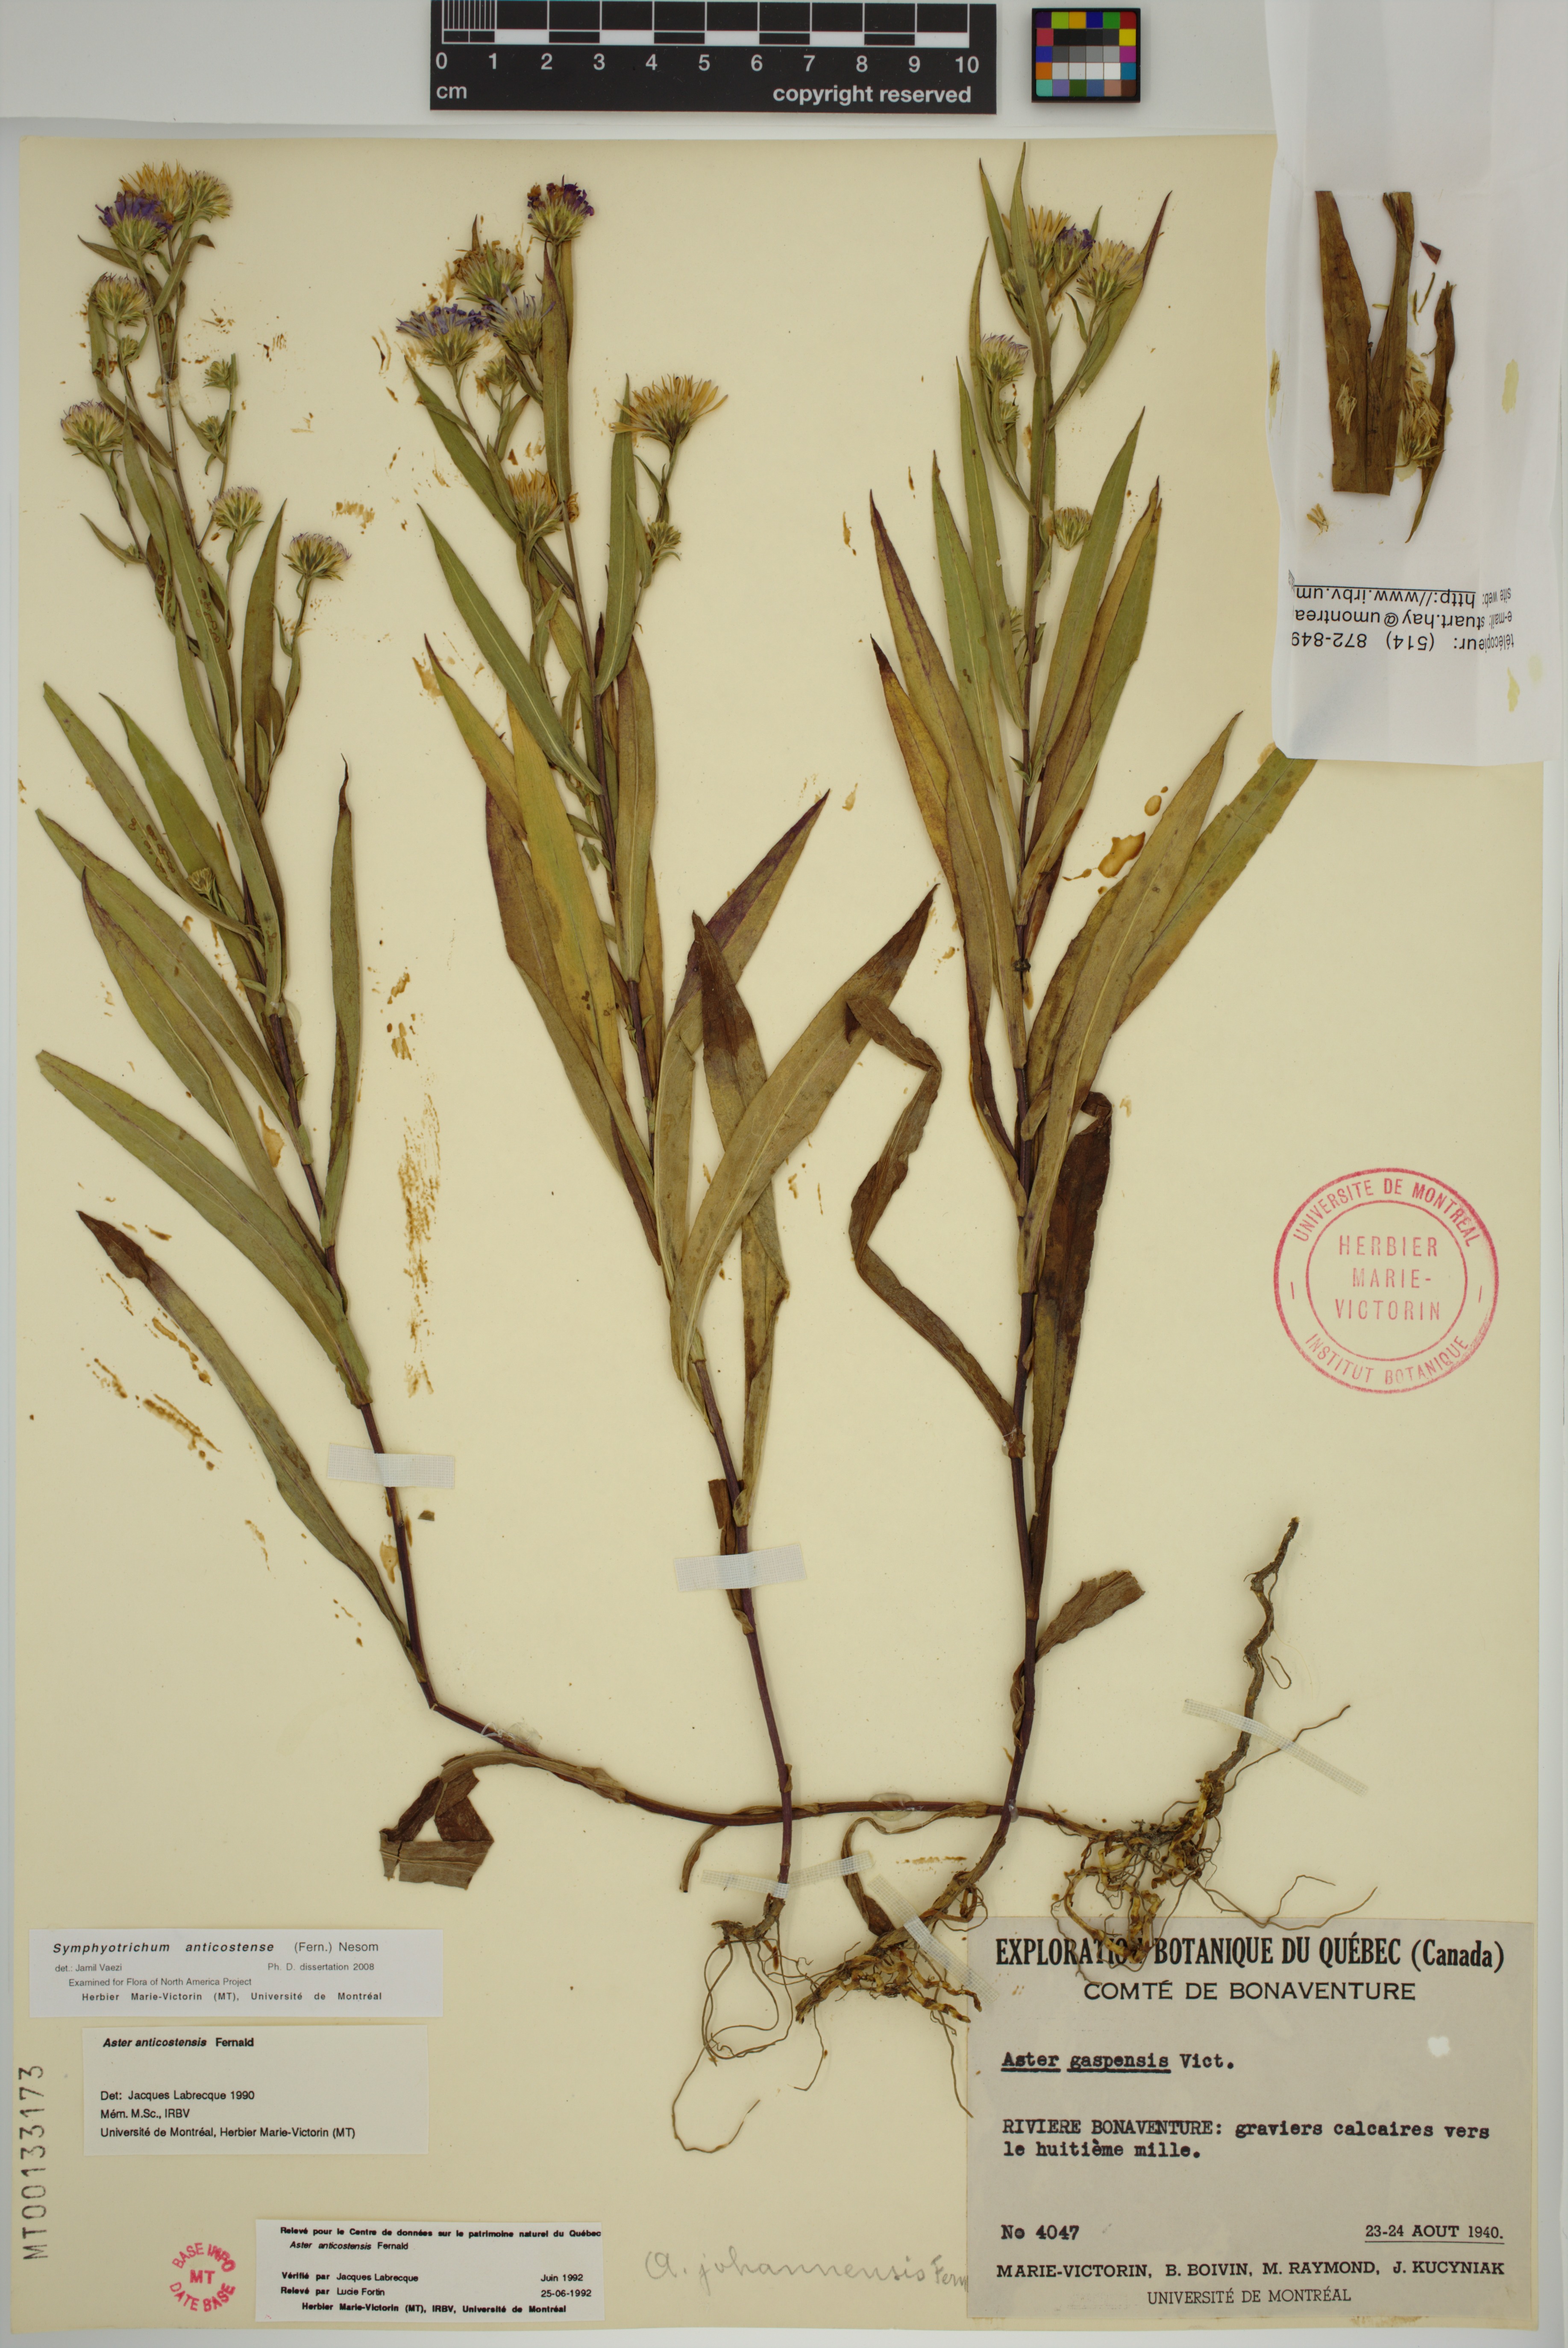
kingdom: Plantae
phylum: Tracheophyta
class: Magnoliopsida
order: Asterales
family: Asteraceae
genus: Symphyotrichum
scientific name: Symphyotrichum anticostense
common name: Anticosti island aster
